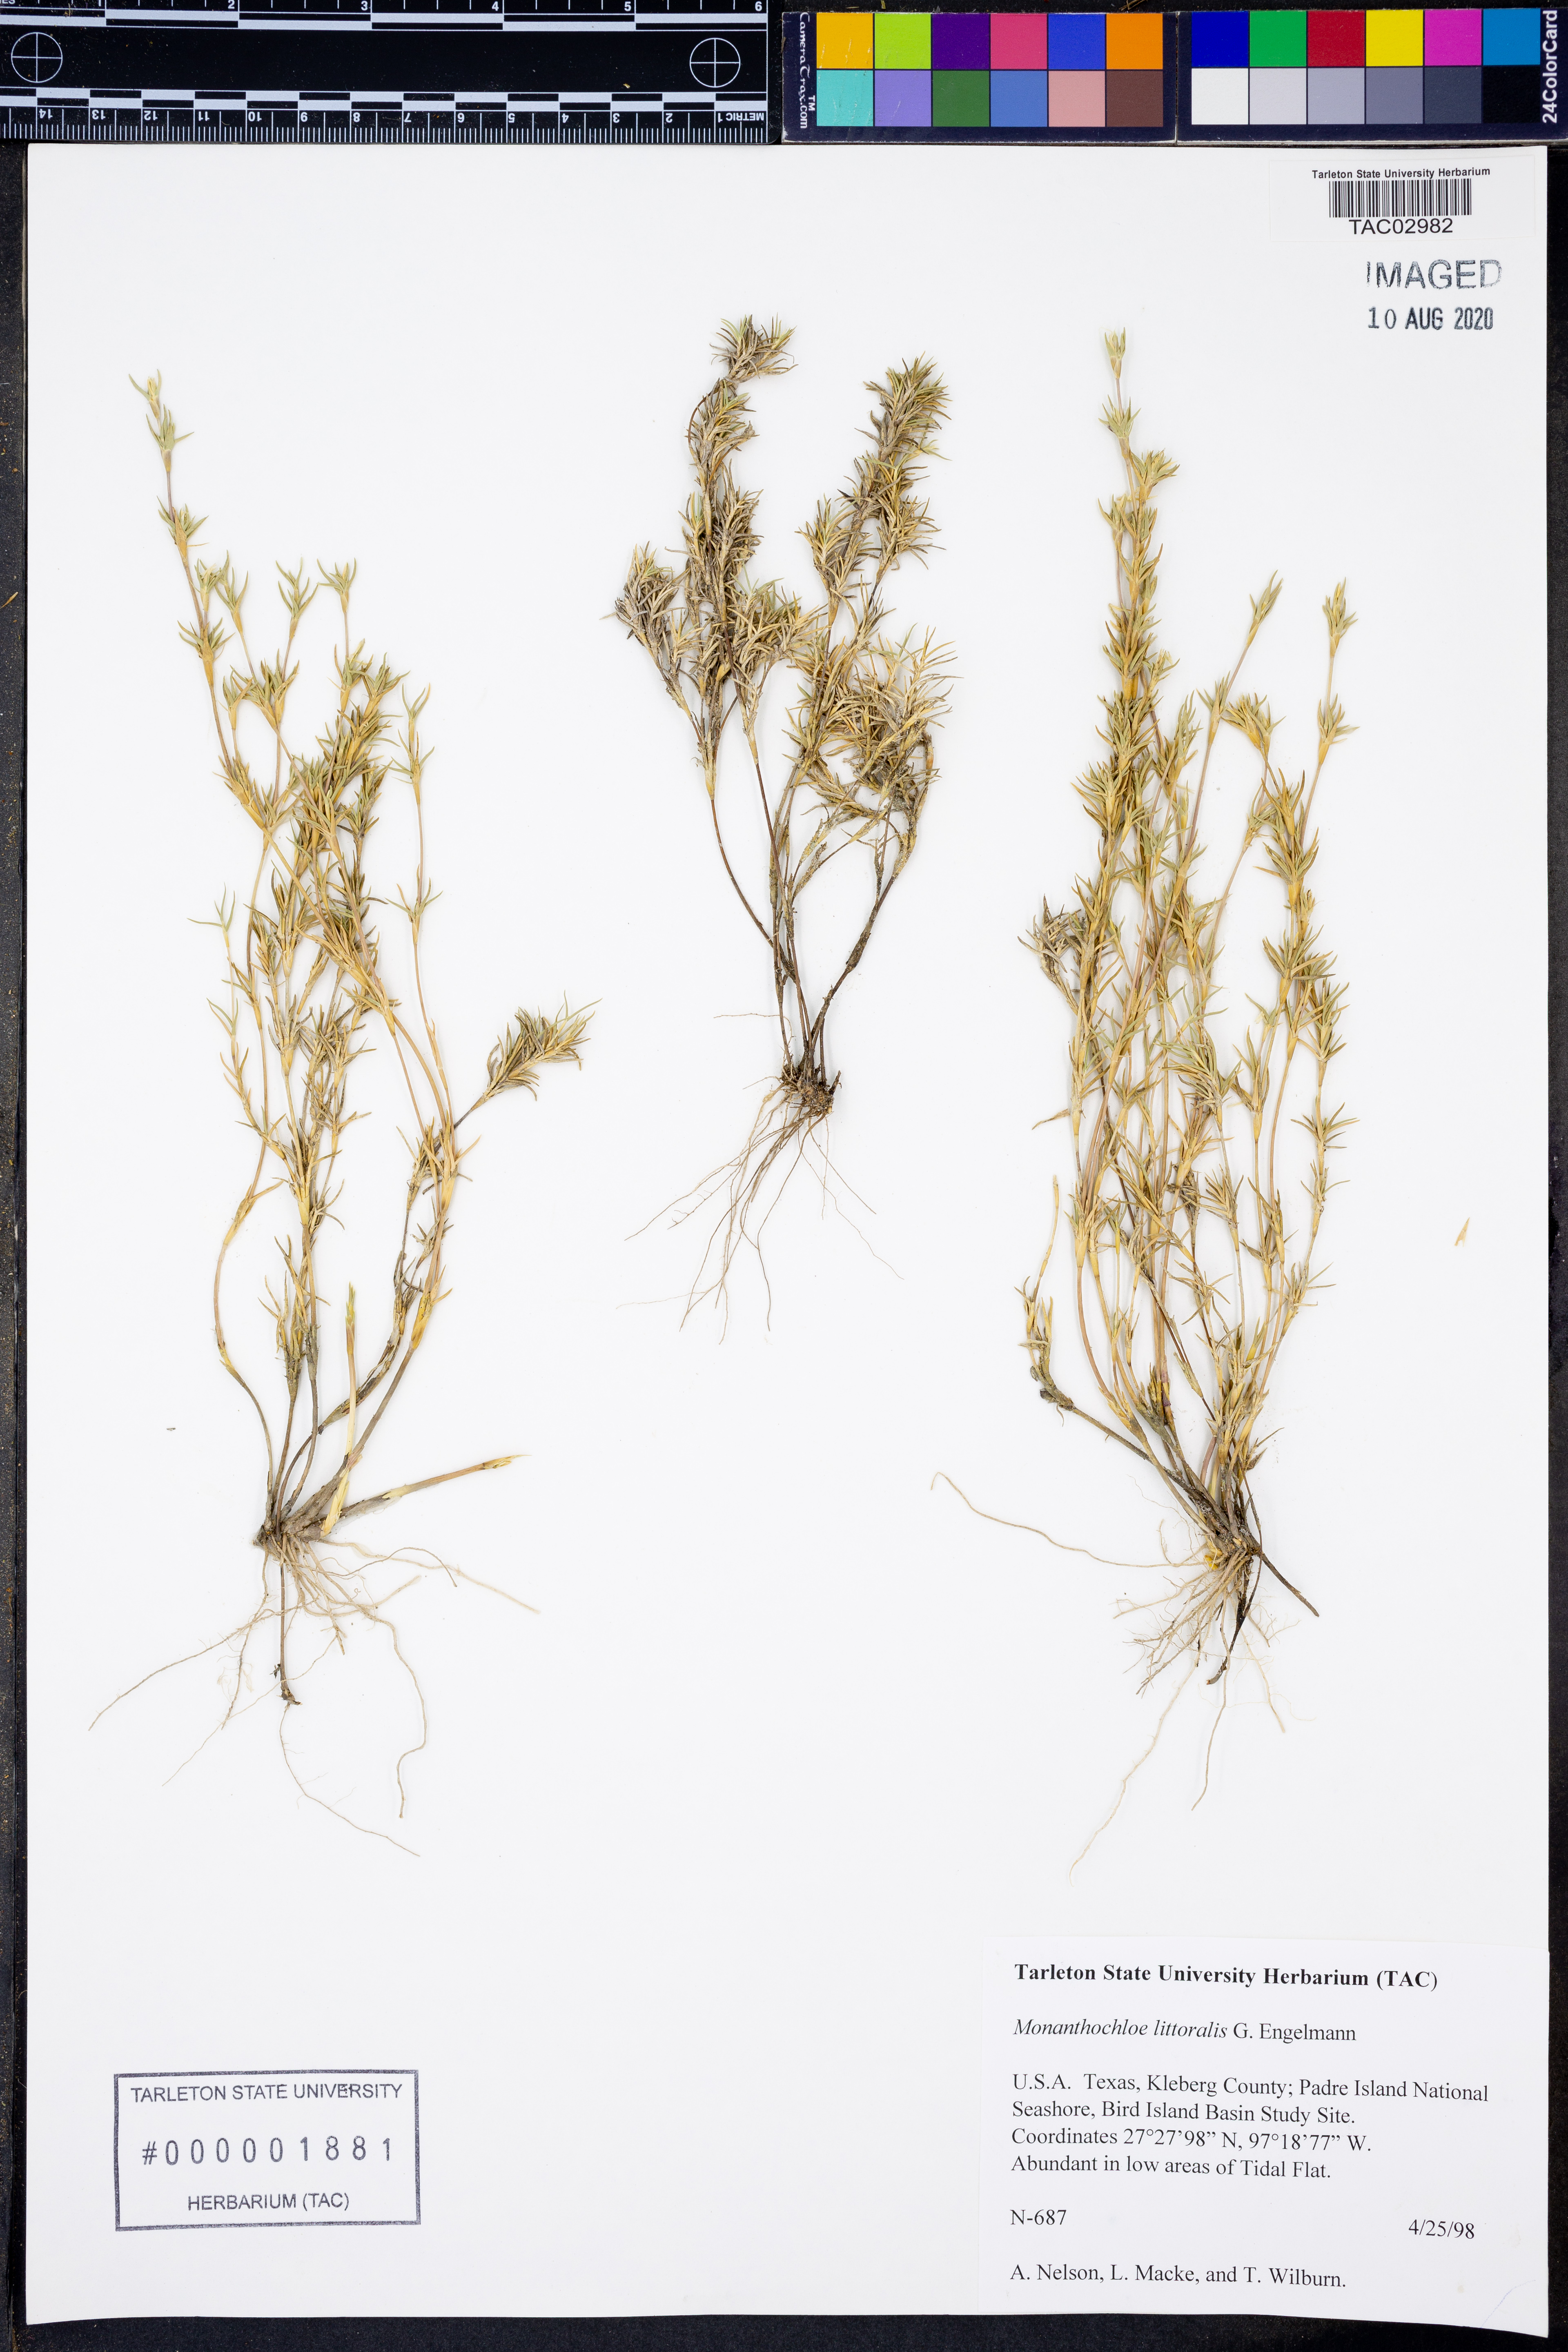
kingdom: Plantae
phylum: Tracheophyta
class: Liliopsida
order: Poales
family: Poaceae
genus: Distichlis
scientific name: Distichlis littoralis
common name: Shore grass
